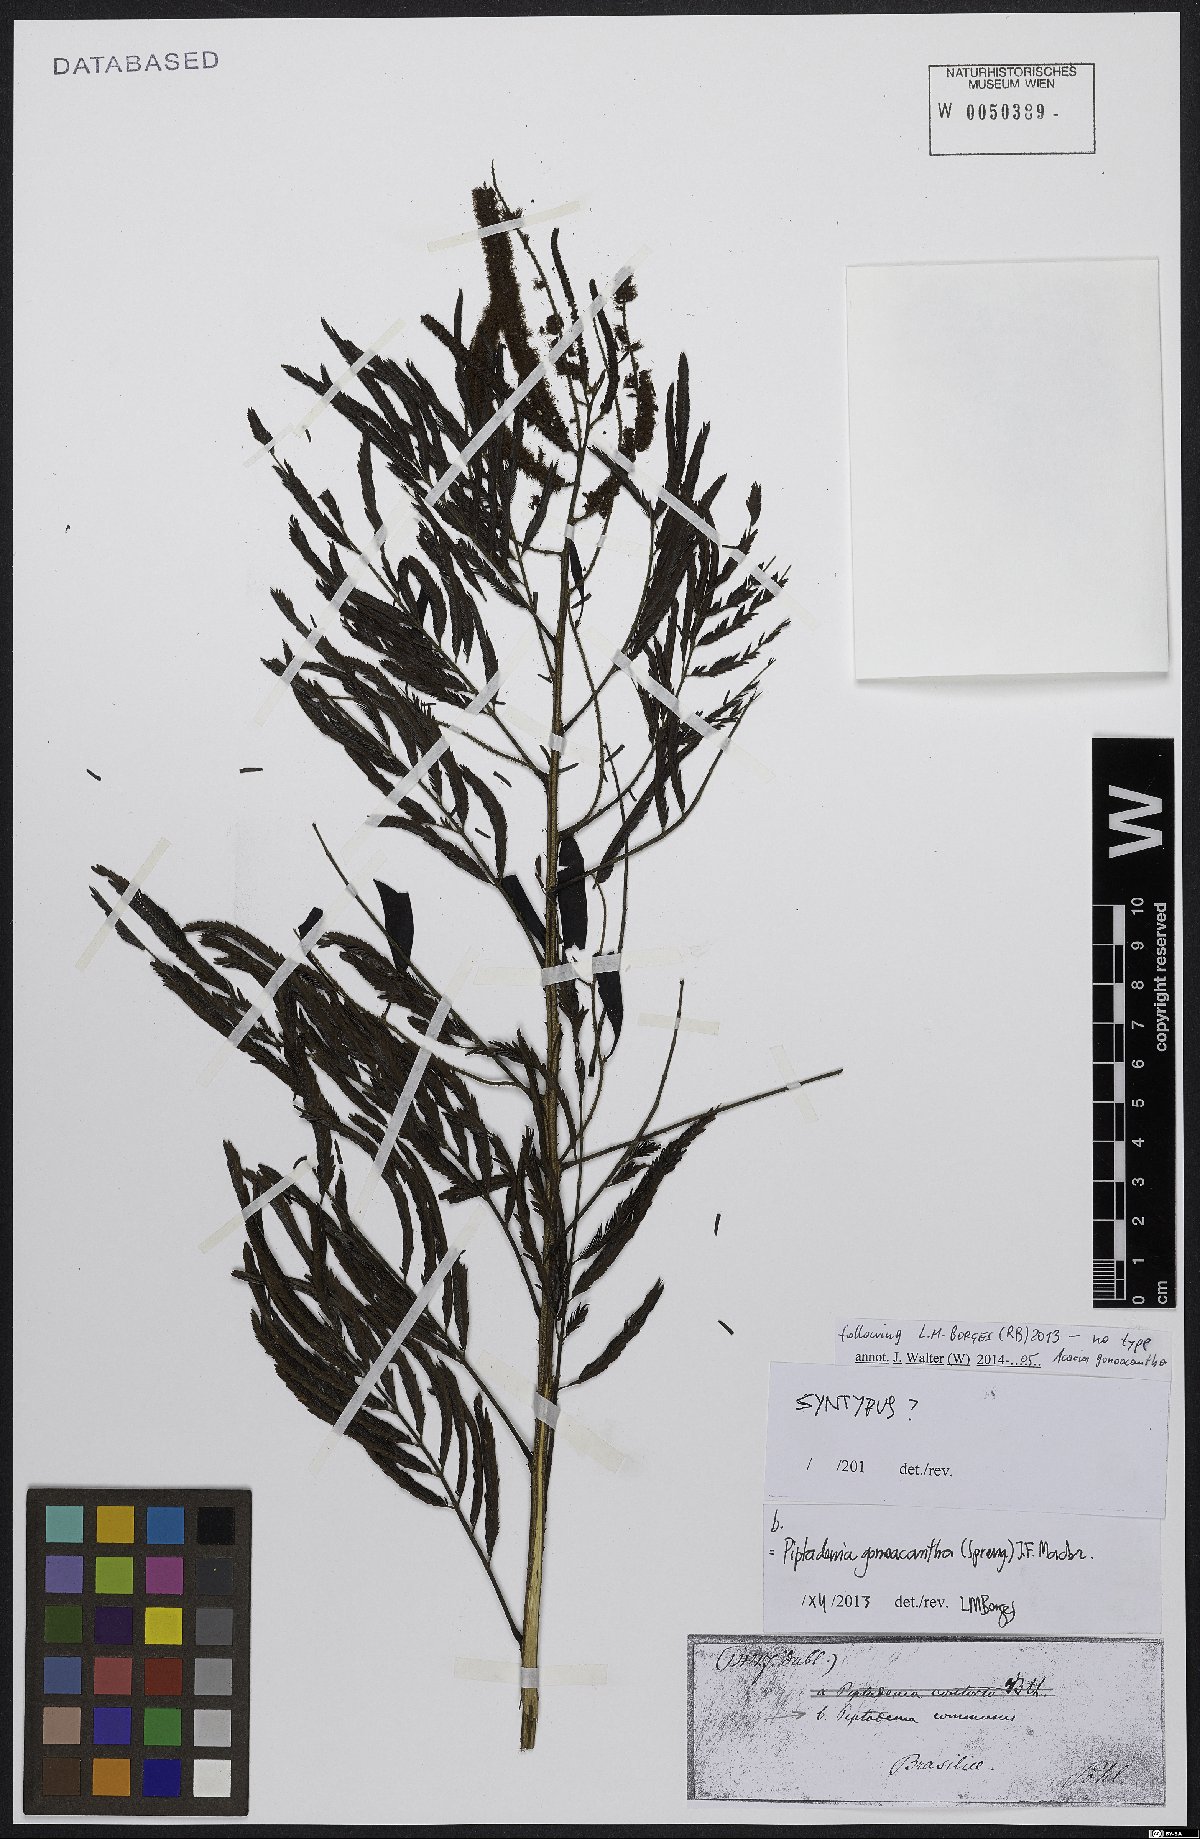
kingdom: Plantae
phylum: Tracheophyta
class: Magnoliopsida
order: Fabales
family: Fabaceae
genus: Piptadenia
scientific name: Piptadenia gonoacantha
